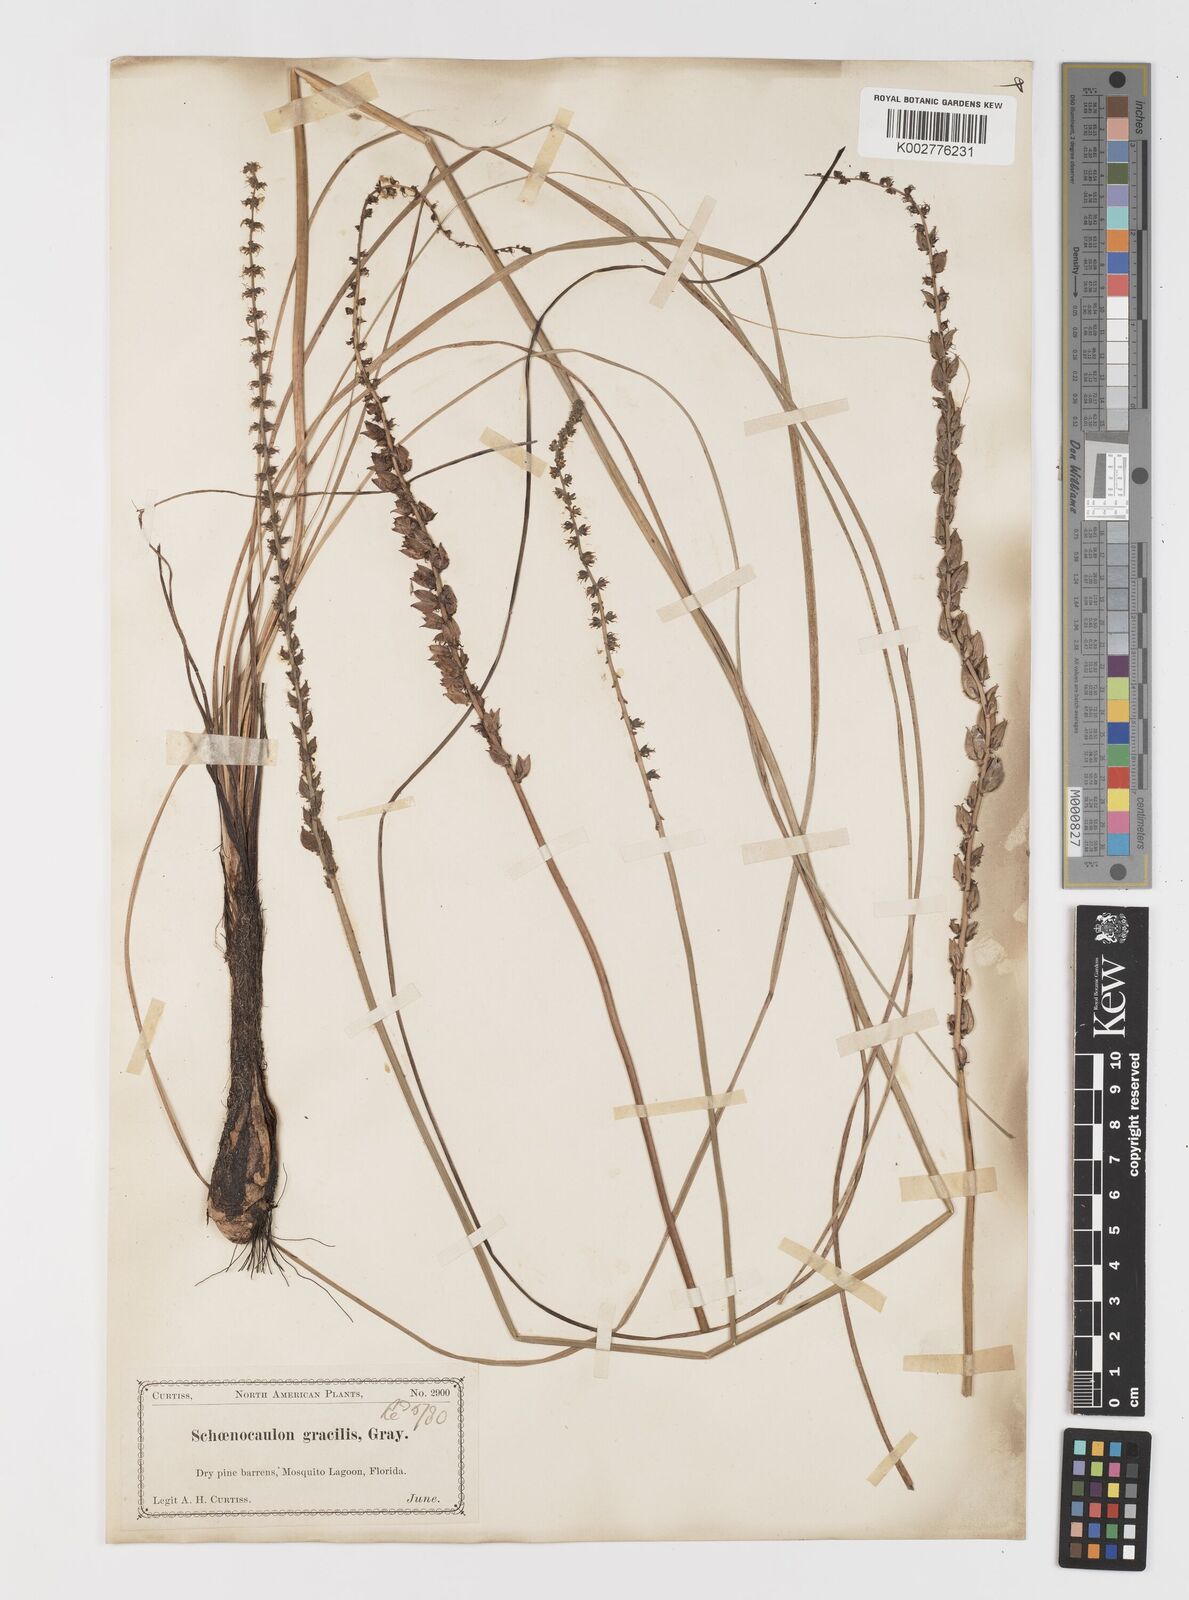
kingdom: Plantae
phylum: Tracheophyta
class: Liliopsida
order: Liliales
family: Melanthiaceae
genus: Schoenocaulon
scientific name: Schoenocaulon dubium
